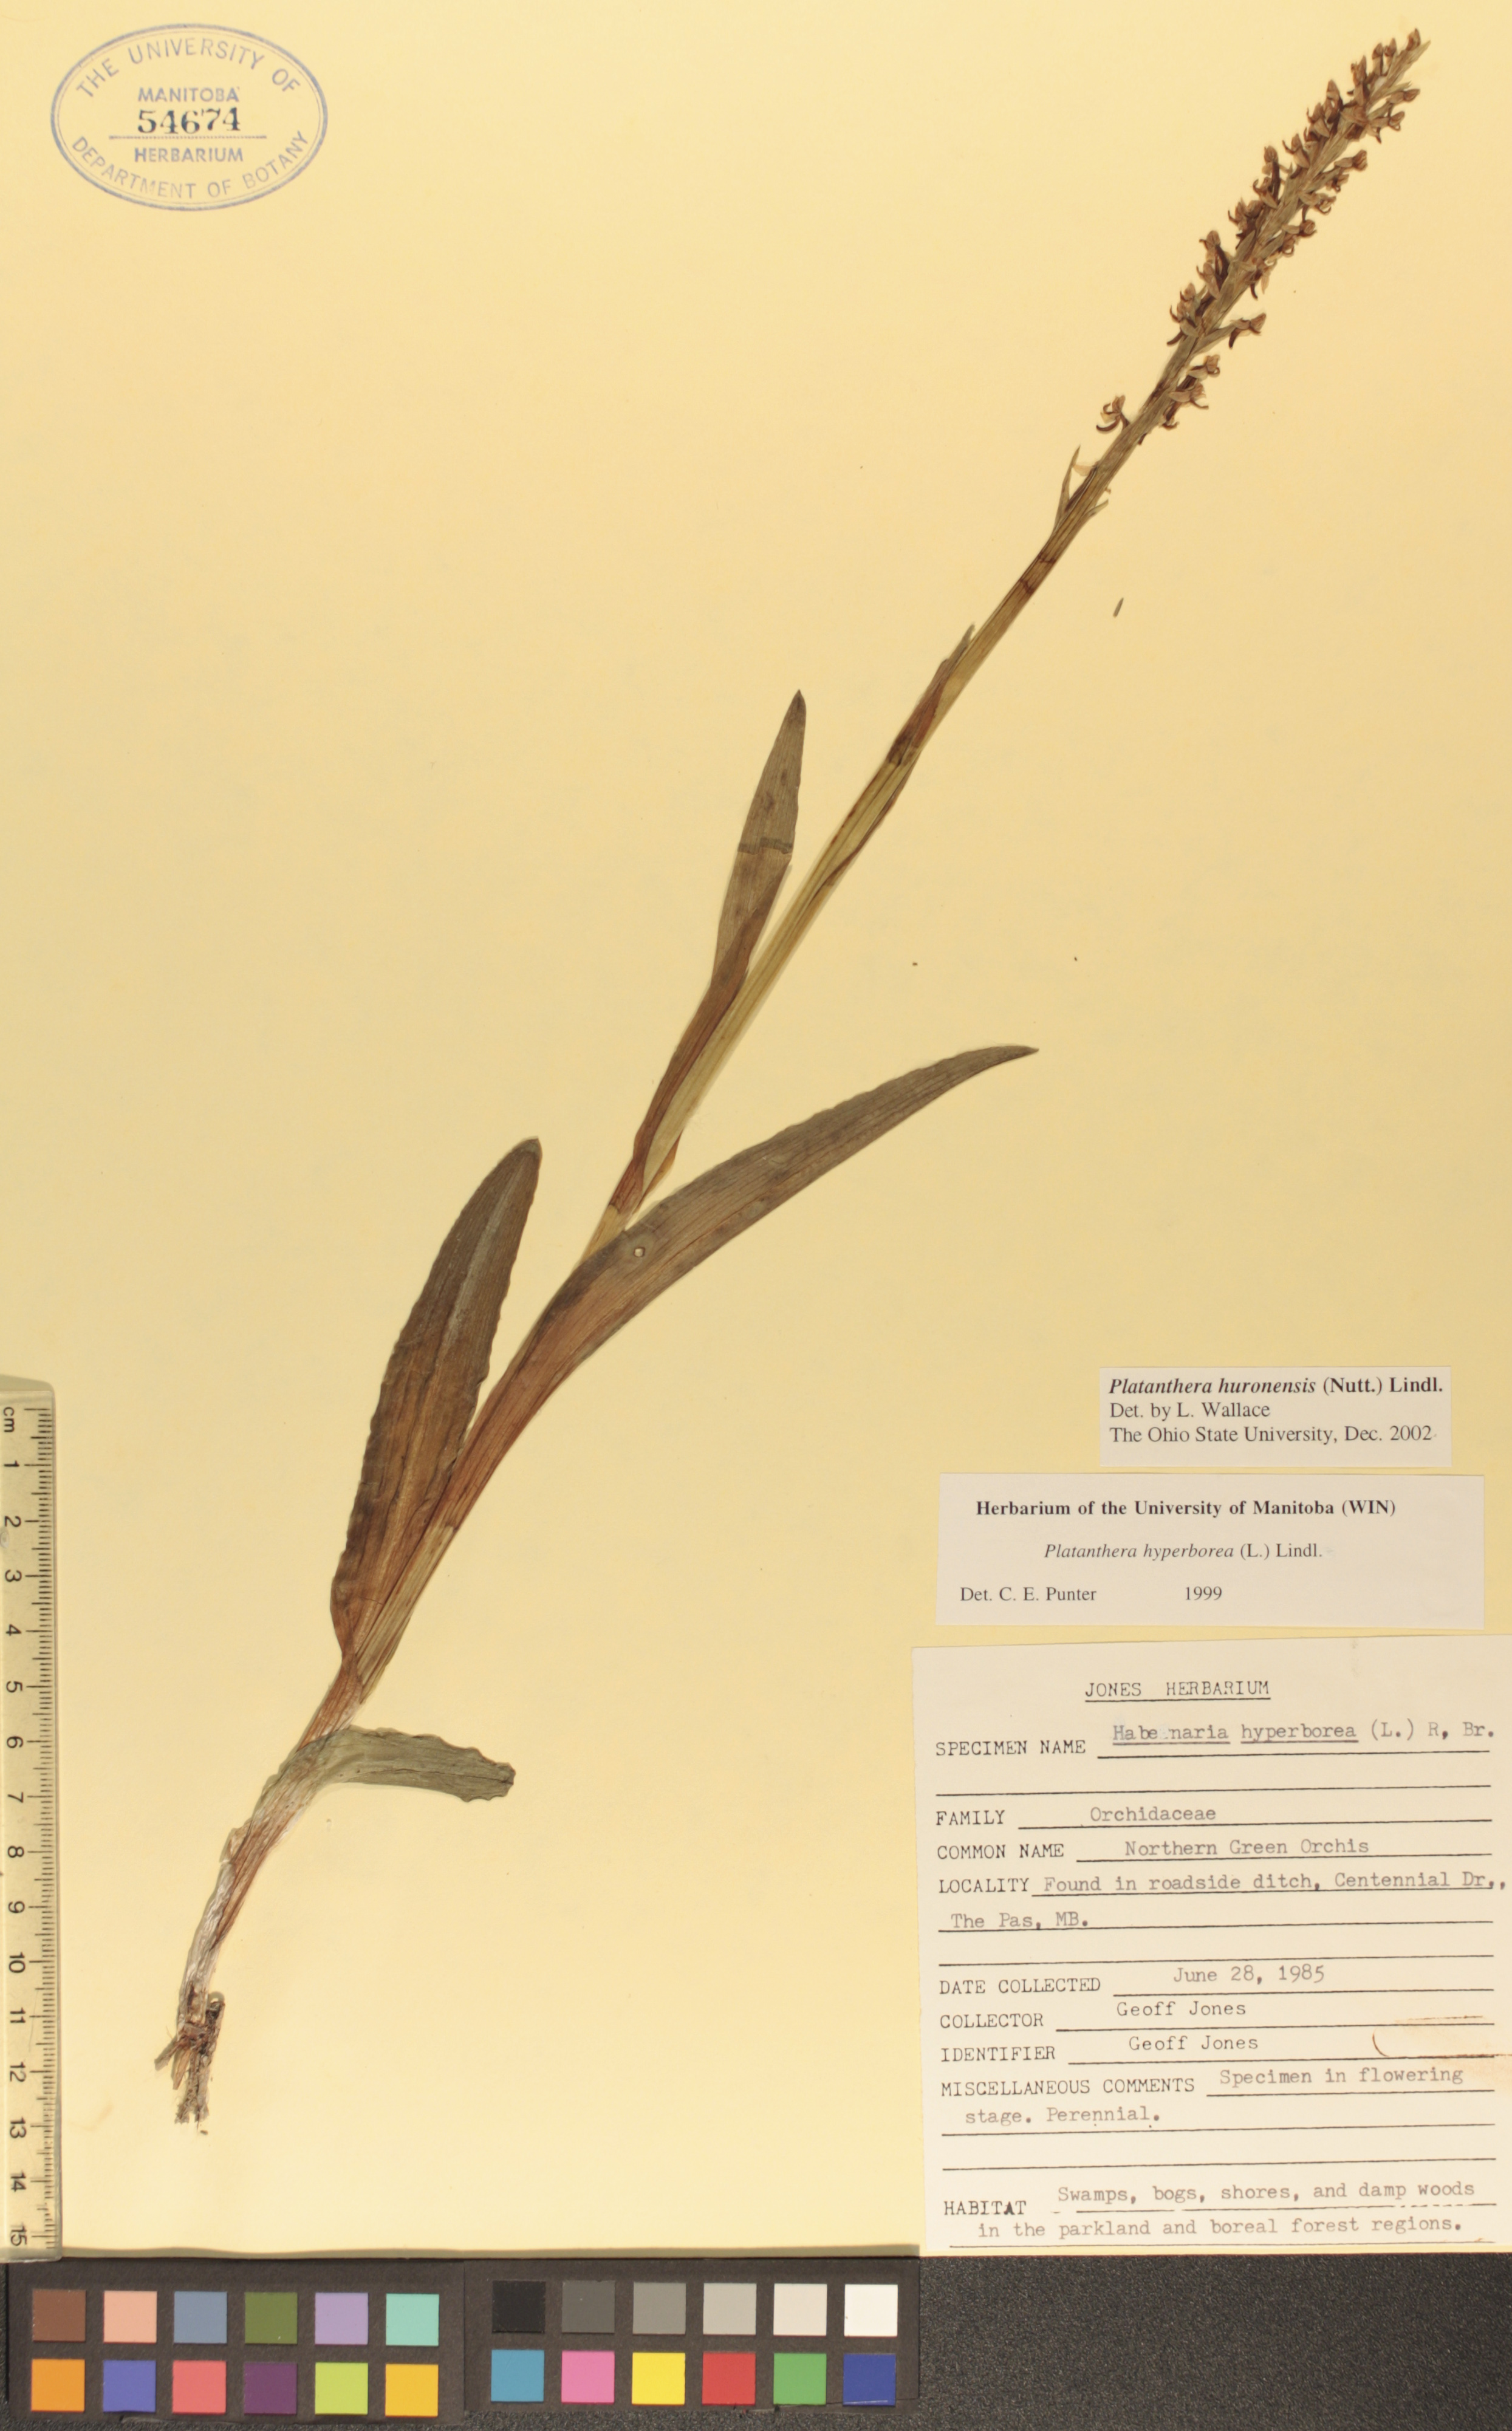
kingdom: Plantae
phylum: Tracheophyta
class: Liliopsida
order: Asparagales
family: Orchidaceae
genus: Platanthera
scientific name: Platanthera huronensis
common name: Fragrant green orchid
